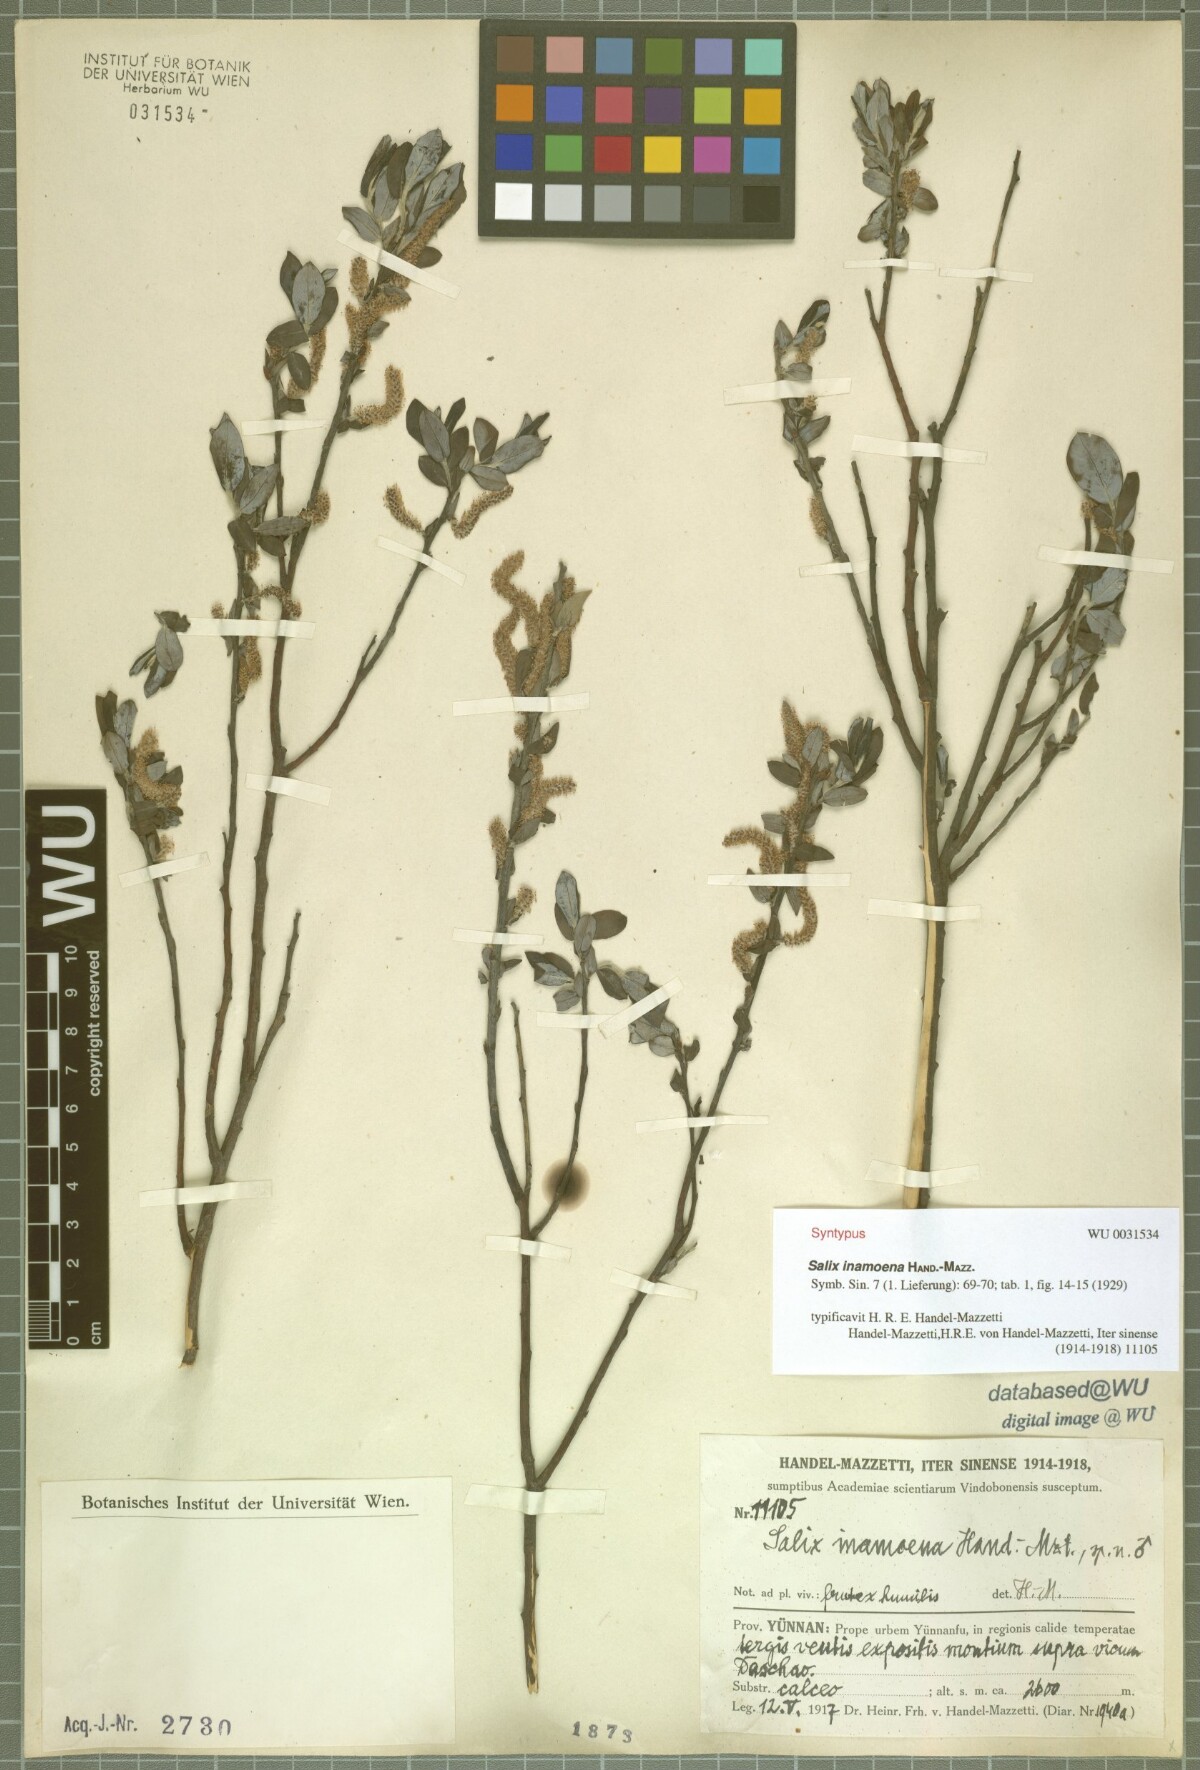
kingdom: Plantae
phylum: Tracheophyta
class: Magnoliopsida
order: Malpighiales
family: Salicaceae
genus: Salix
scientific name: Salix inamoena
